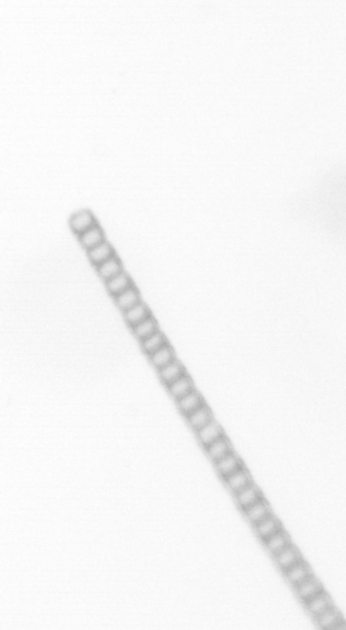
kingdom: Chromista
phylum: Ochrophyta
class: Bacillariophyceae
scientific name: Bacillariophyceae
